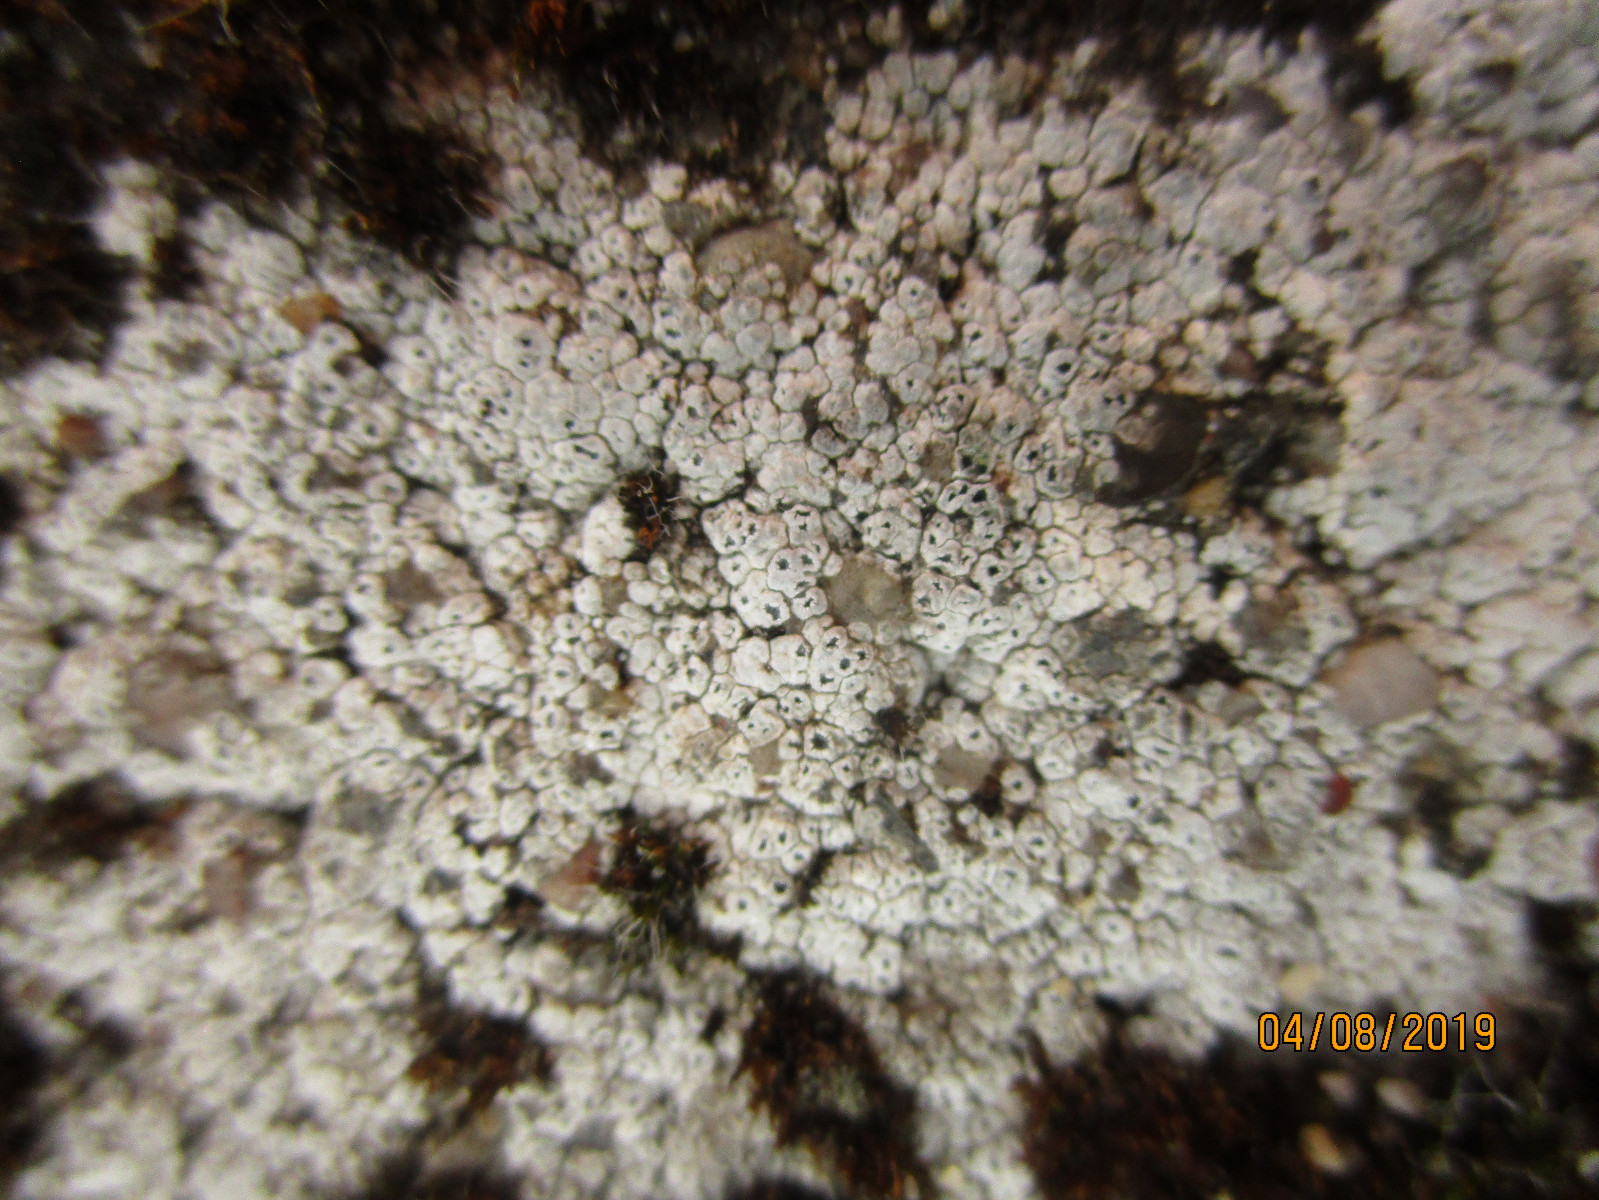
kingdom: Fungi
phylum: Ascomycota
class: Lecanoromycetes
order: Pertusariales
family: Megasporaceae
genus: Circinaria
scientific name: Circinaria contorta
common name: indviklet hulskivelav
